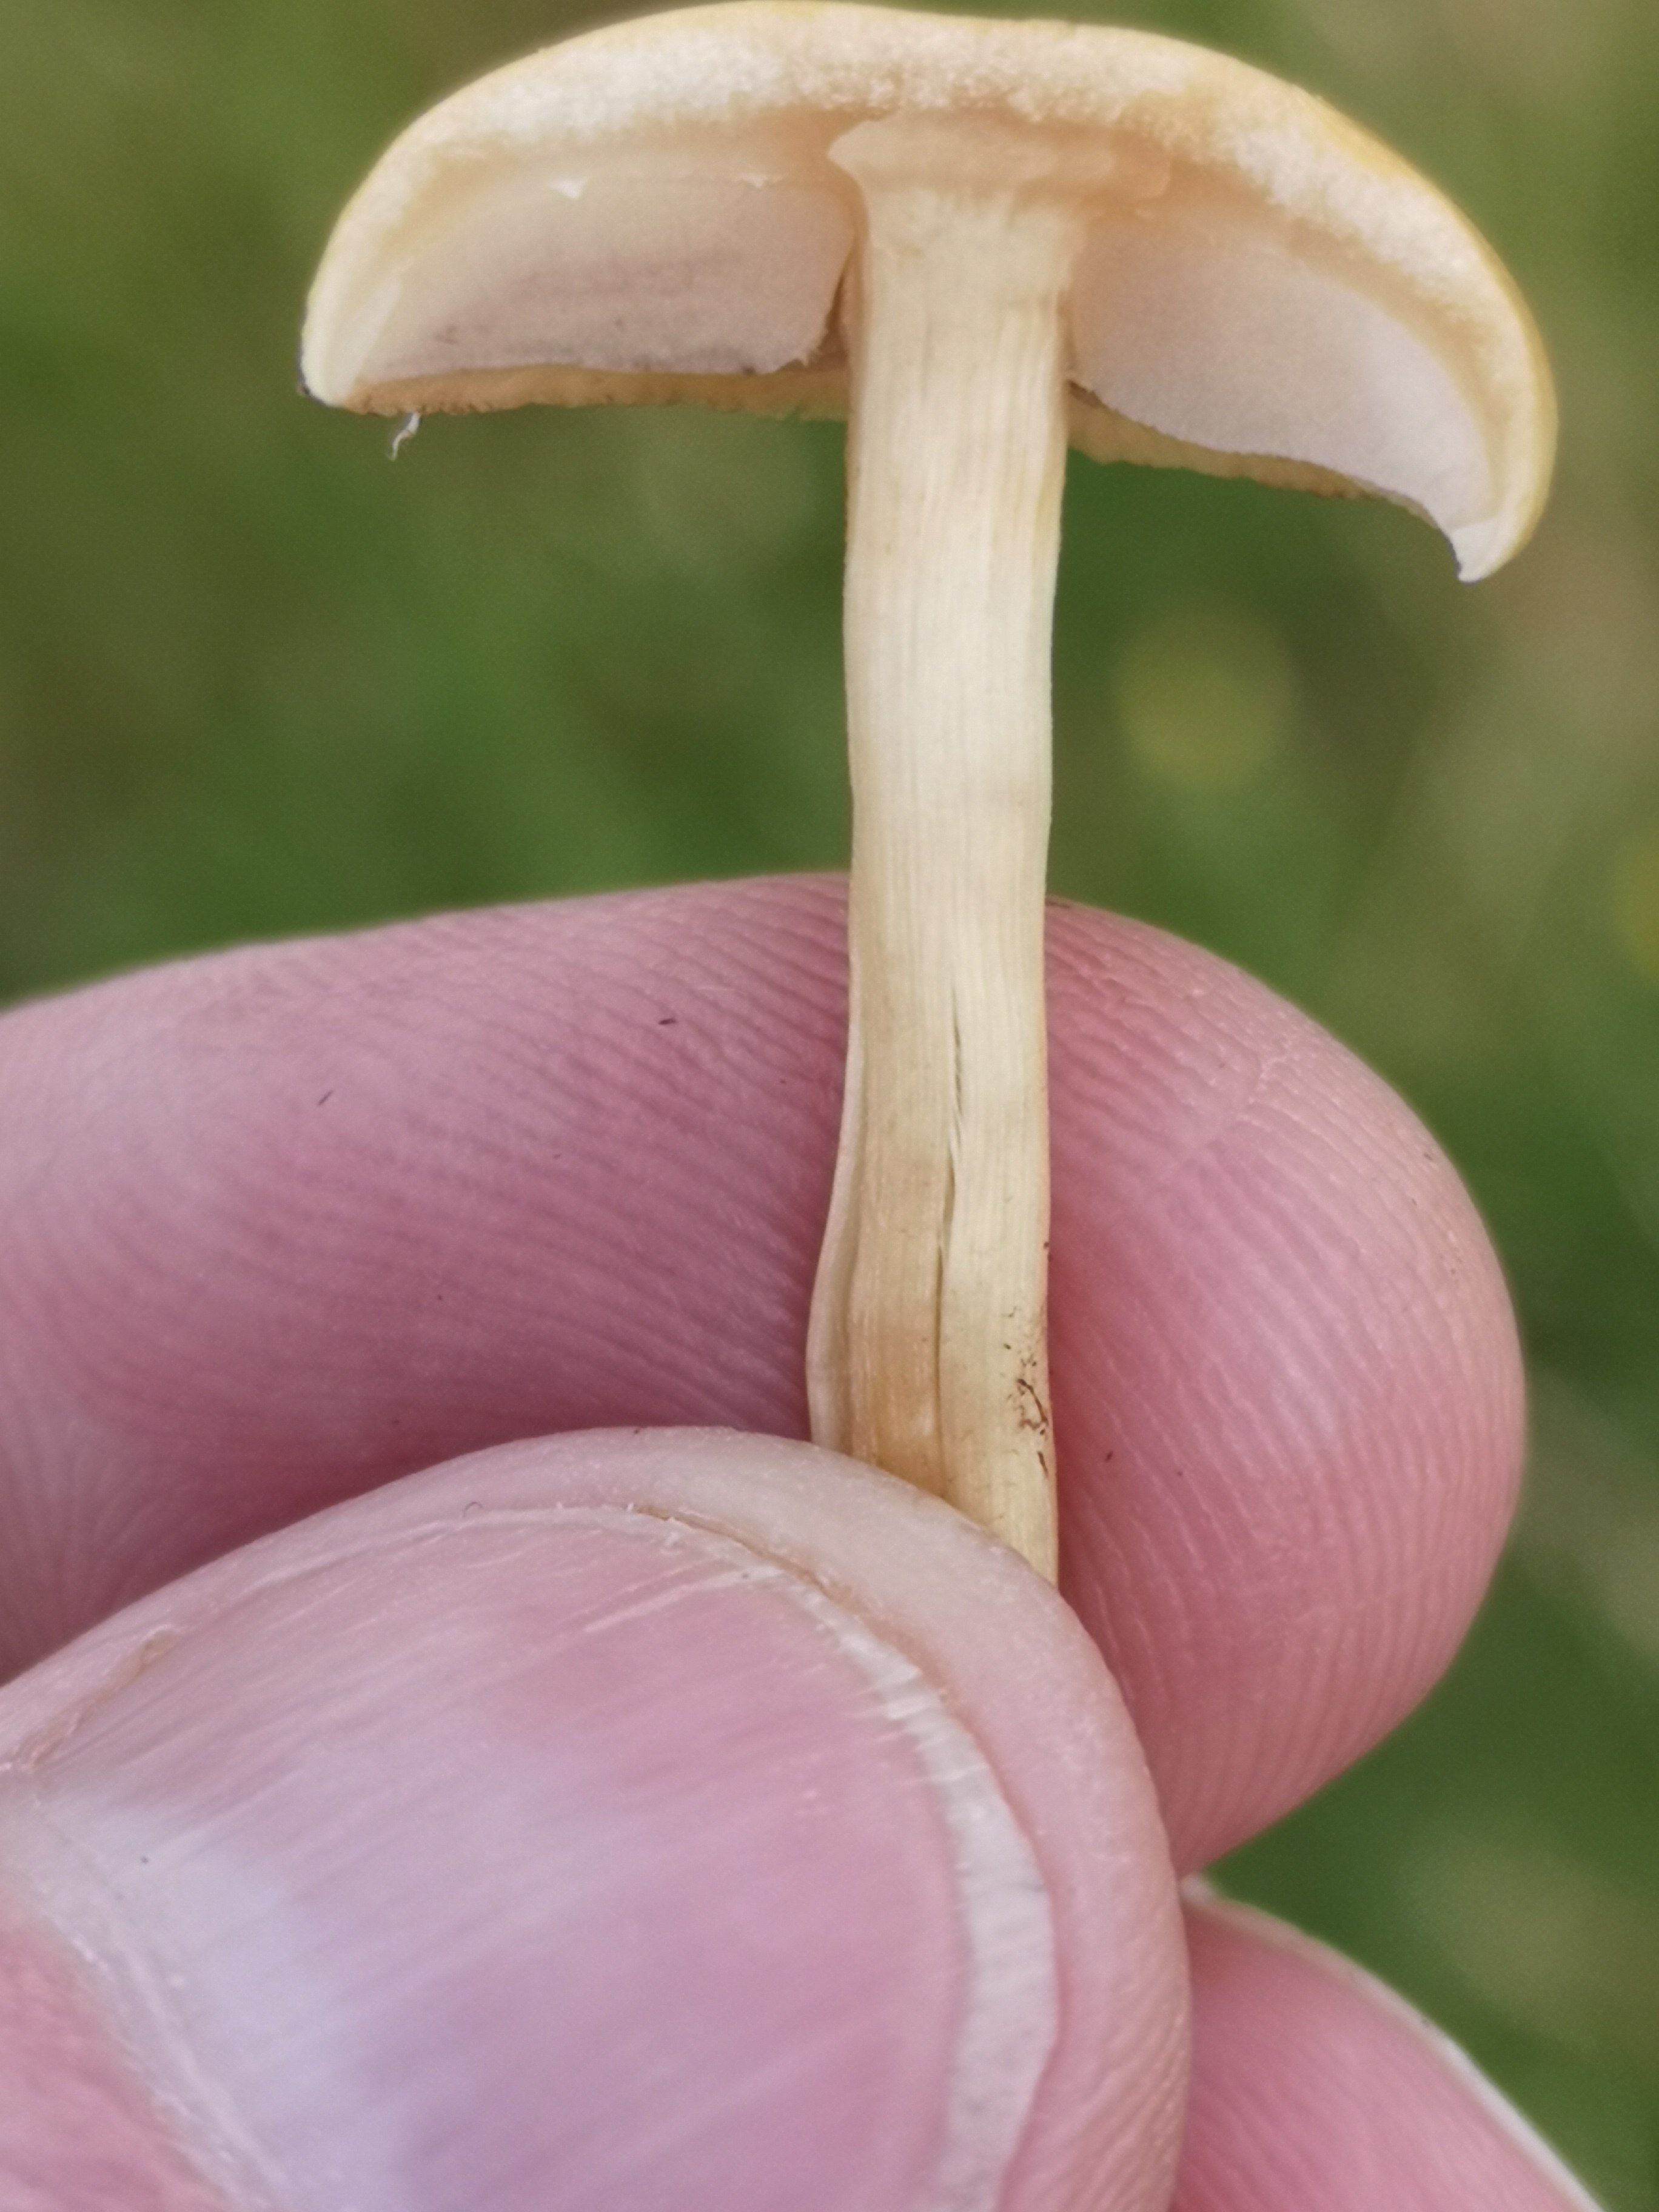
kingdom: Fungi
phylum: Basidiomycota
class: Agaricomycetes
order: Agaricales
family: Strophariaceae
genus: Agrocybe
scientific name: Agrocybe pediades
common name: almindelig agerhat
